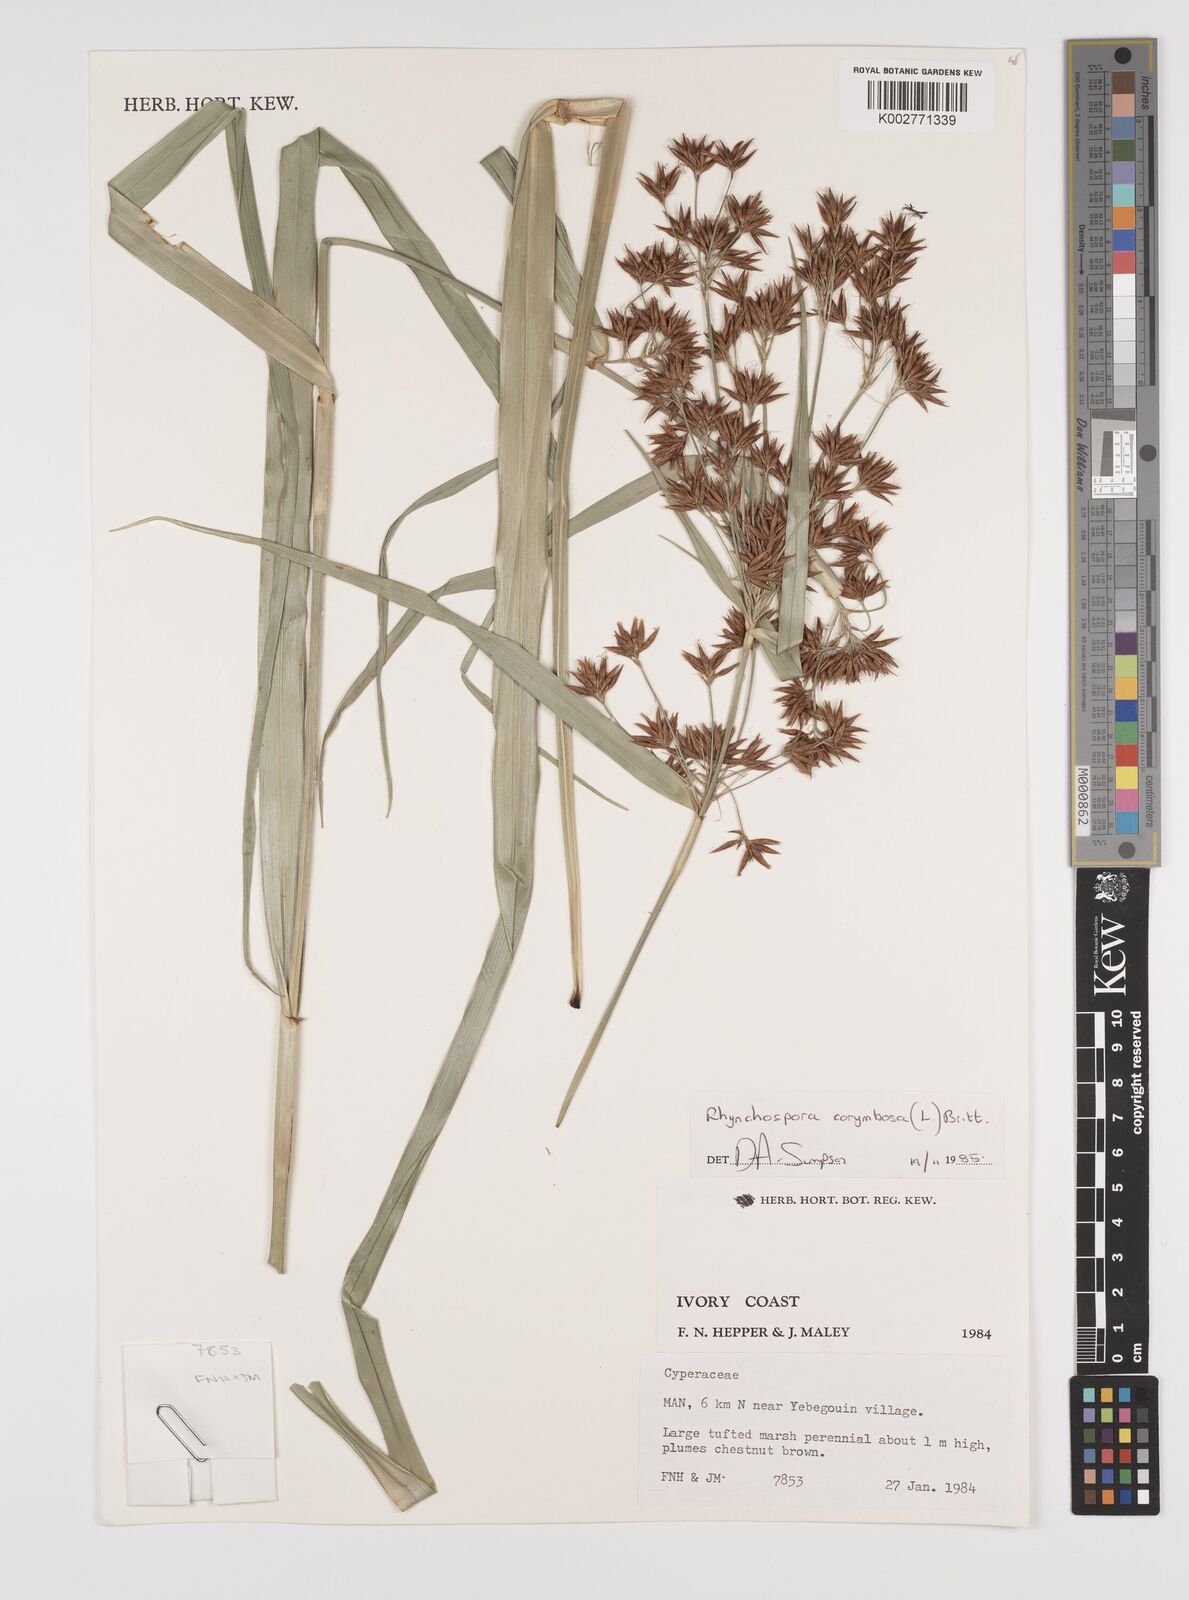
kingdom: Plantae
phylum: Tracheophyta
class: Liliopsida
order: Poales
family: Cyperaceae
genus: Rhynchospora
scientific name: Rhynchospora corymbosa
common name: Golden beak sedge
